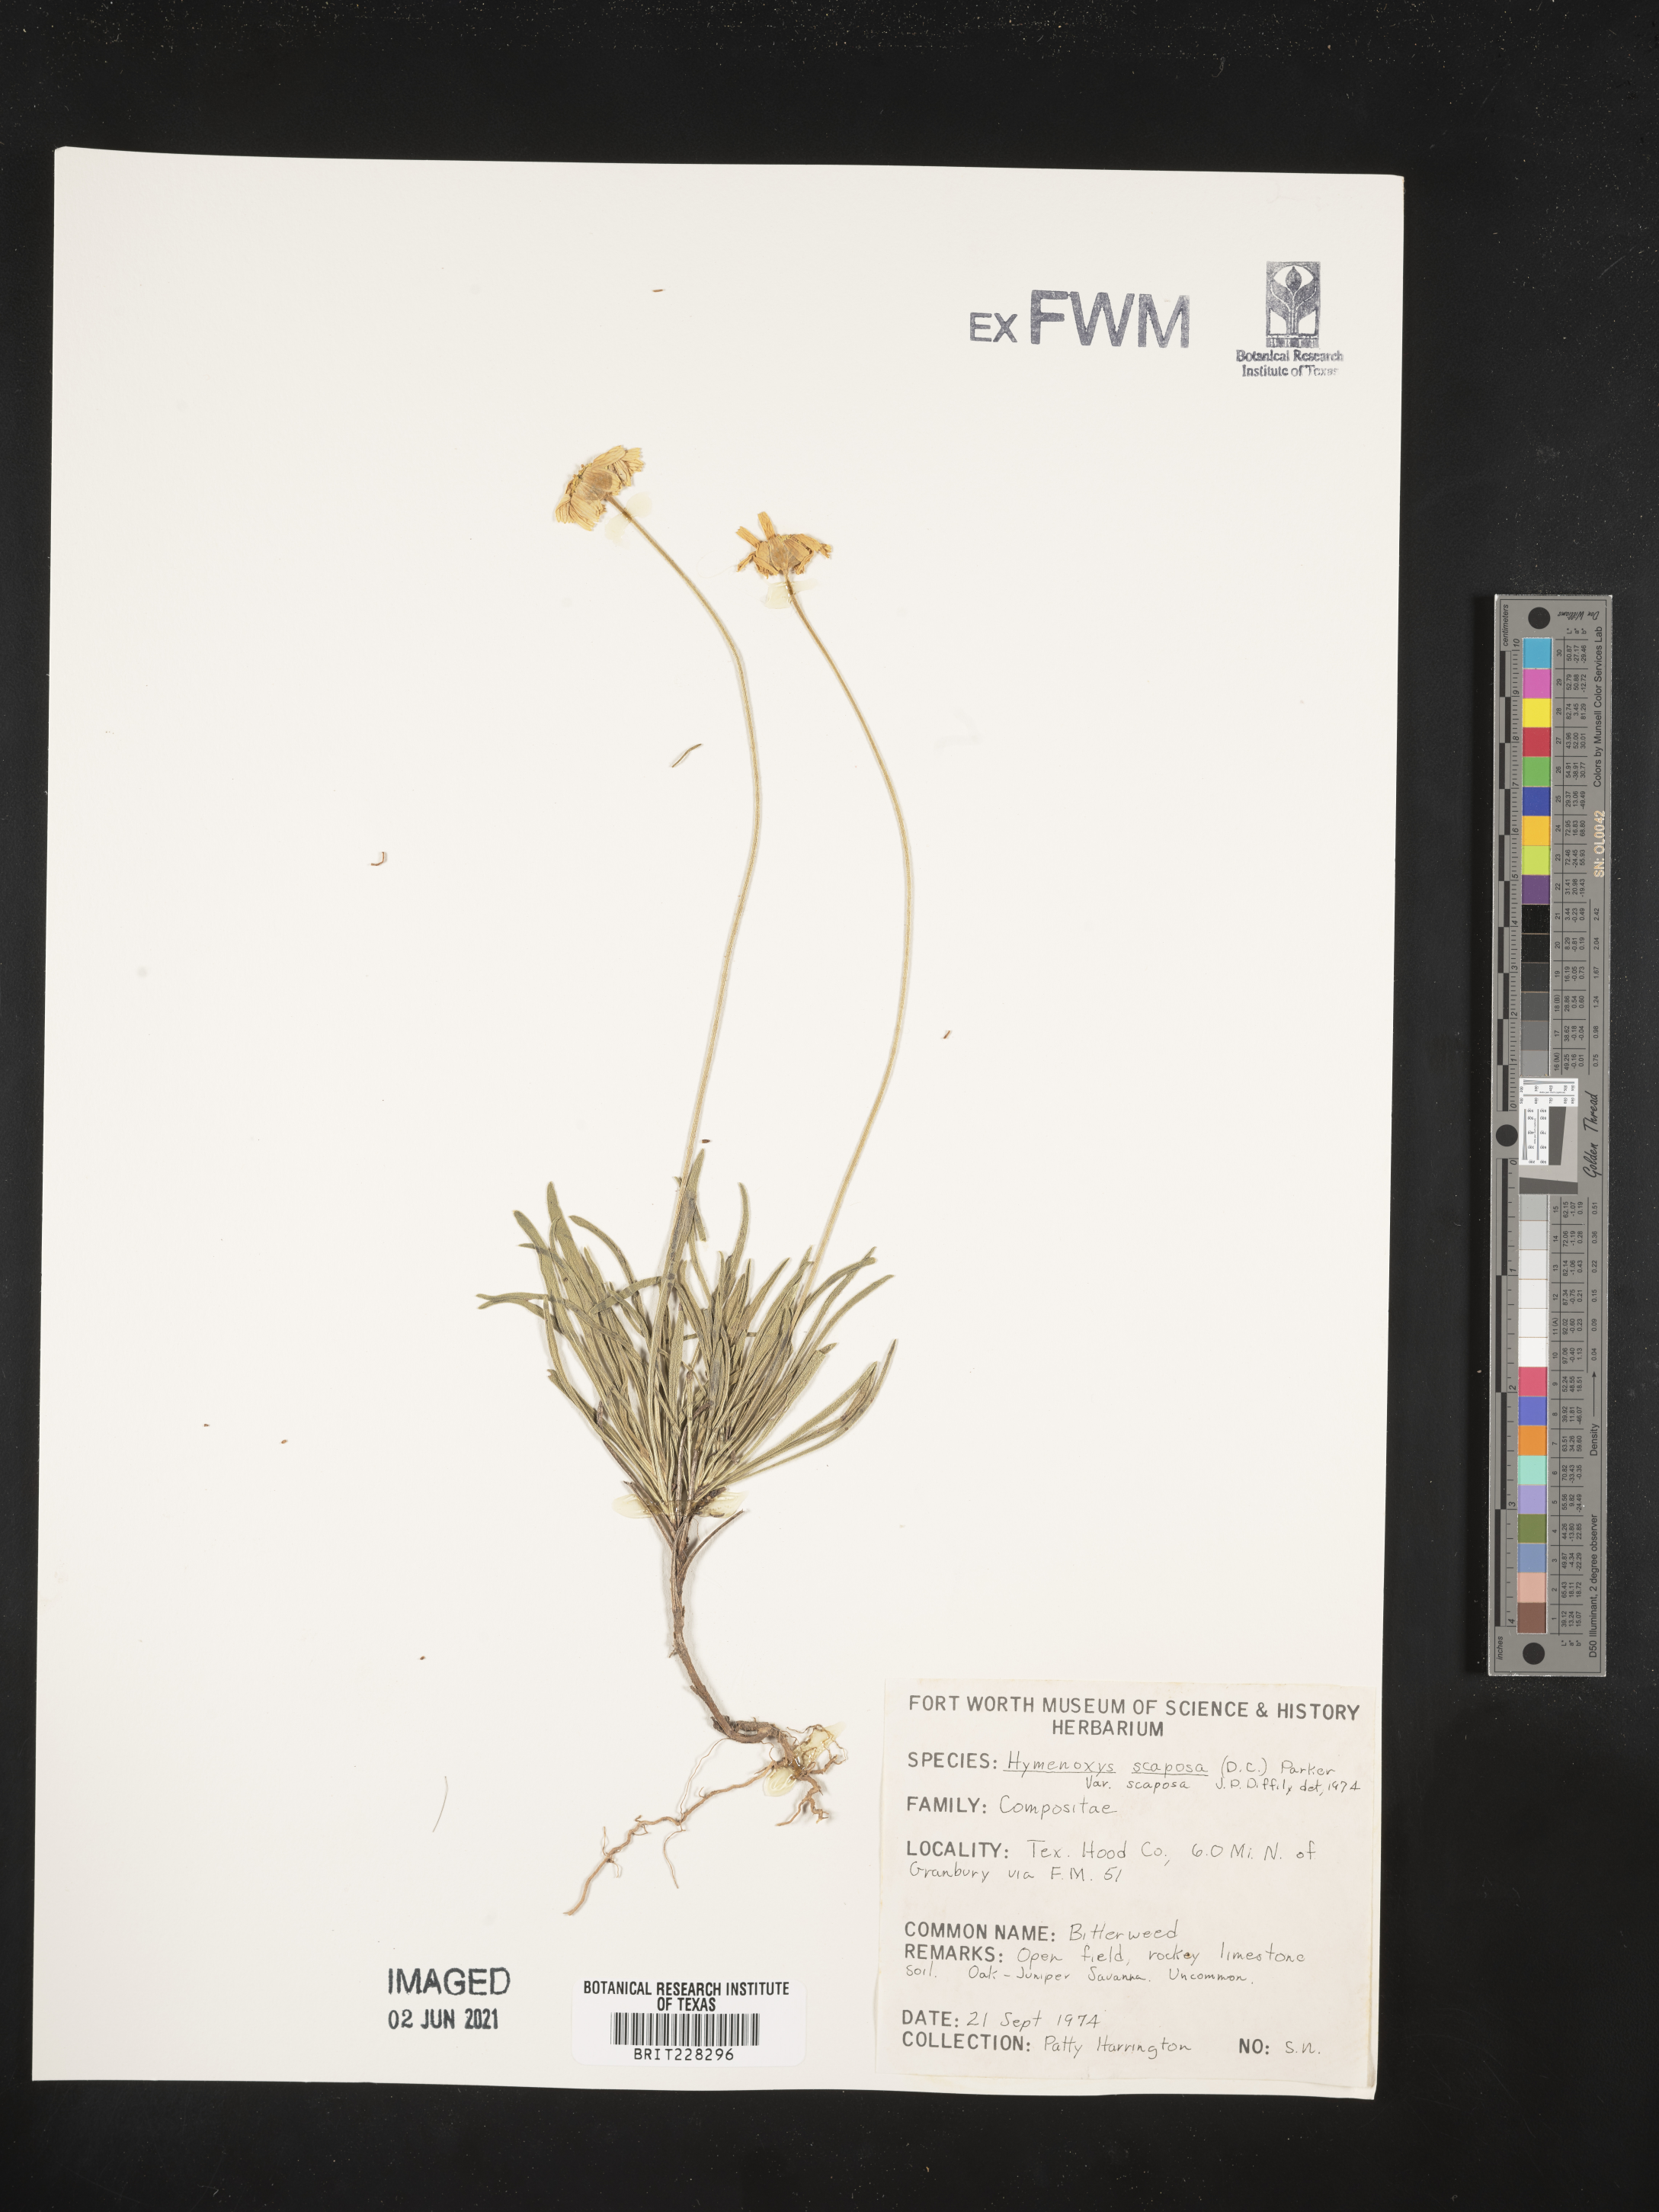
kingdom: Plantae
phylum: Tracheophyta
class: Magnoliopsida
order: Asterales
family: Asteraceae
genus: Tetraneuris
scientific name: Tetraneuris scaposa
